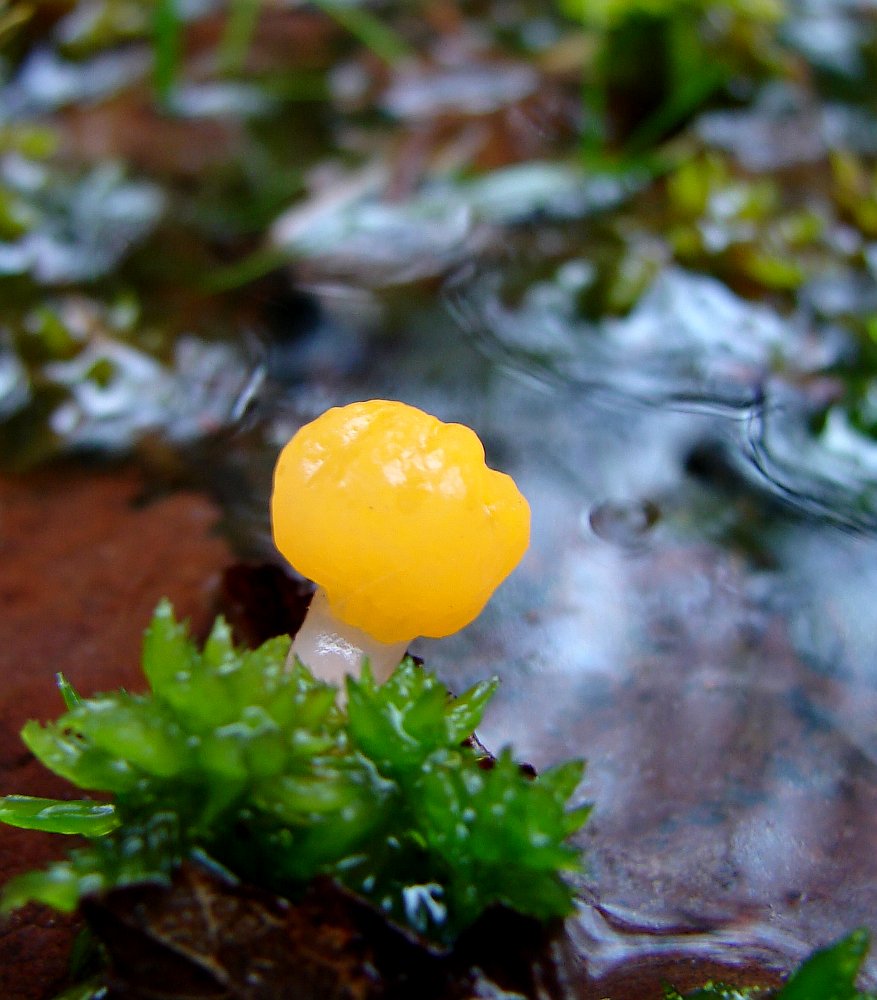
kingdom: Fungi
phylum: Ascomycota
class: Leotiomycetes
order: Helotiales
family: Cenangiaceae
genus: Mitrula
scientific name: Mitrula paludosa
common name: gul nøkketunge
